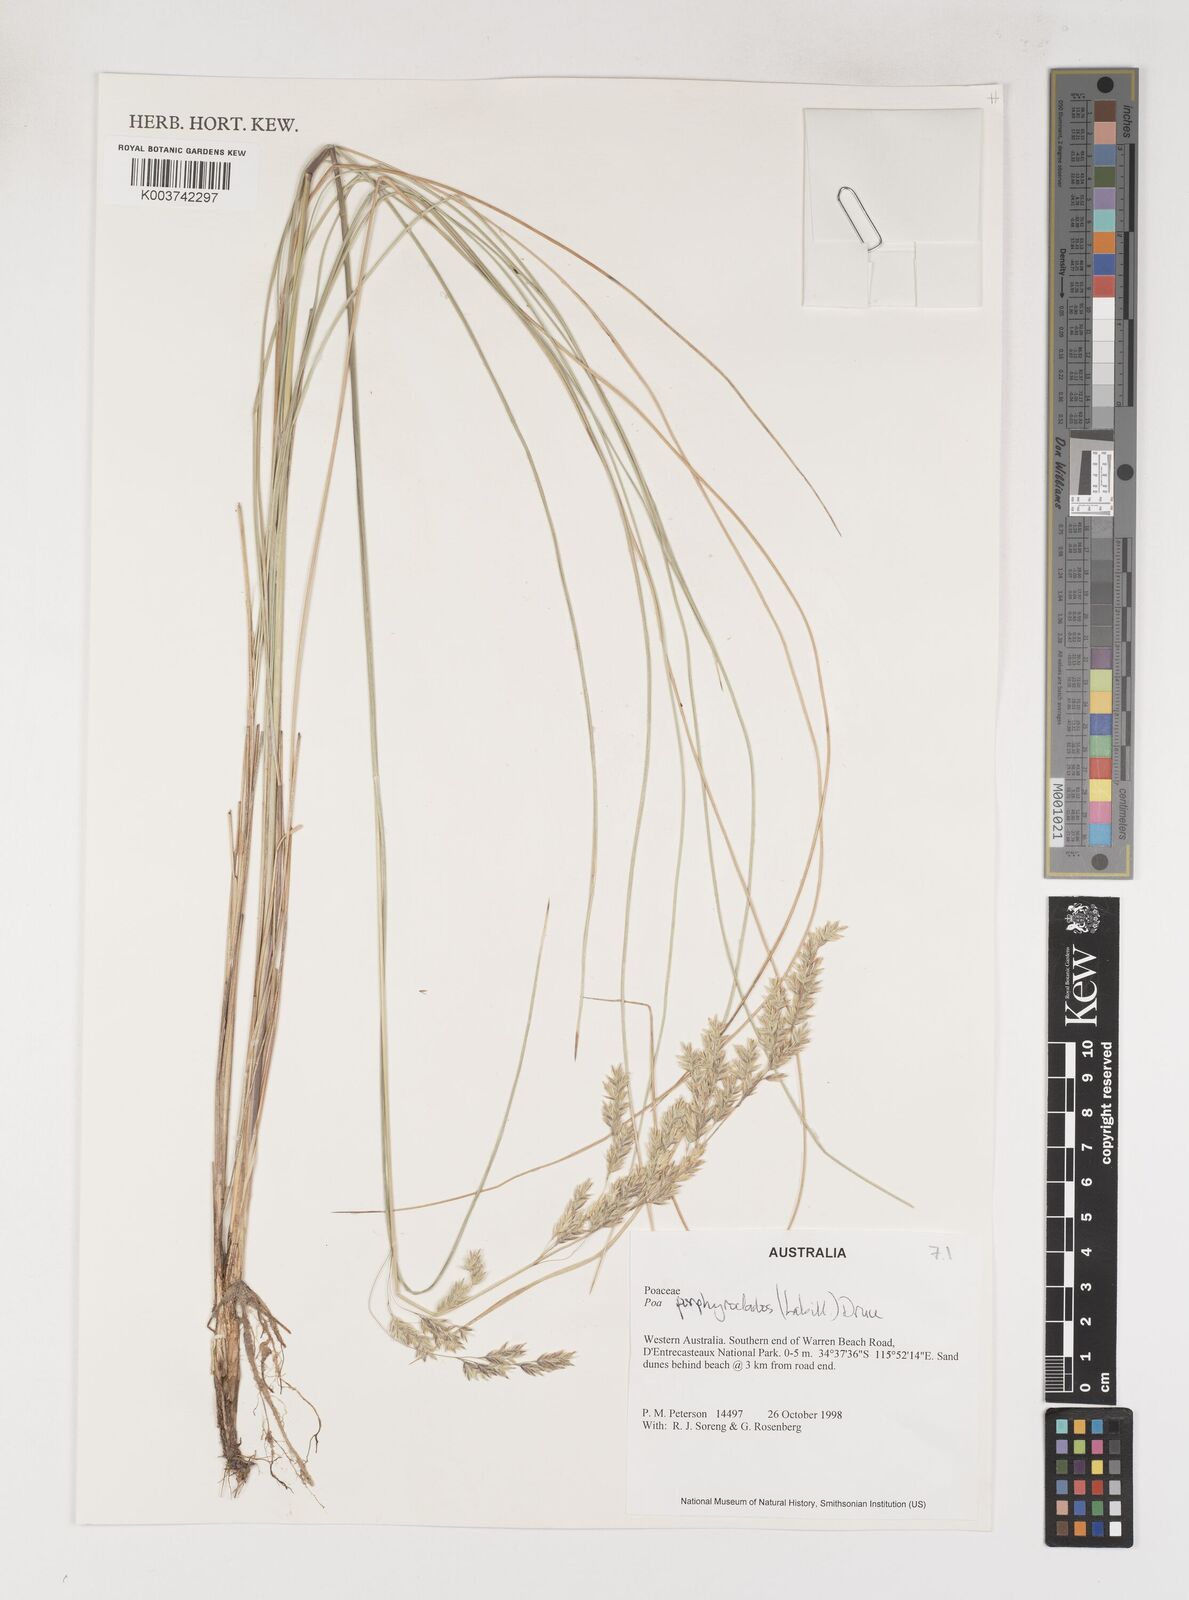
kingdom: Plantae
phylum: Tracheophyta
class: Liliopsida
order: Poales
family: Poaceae
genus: Poa
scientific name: Poa porphyroclados
